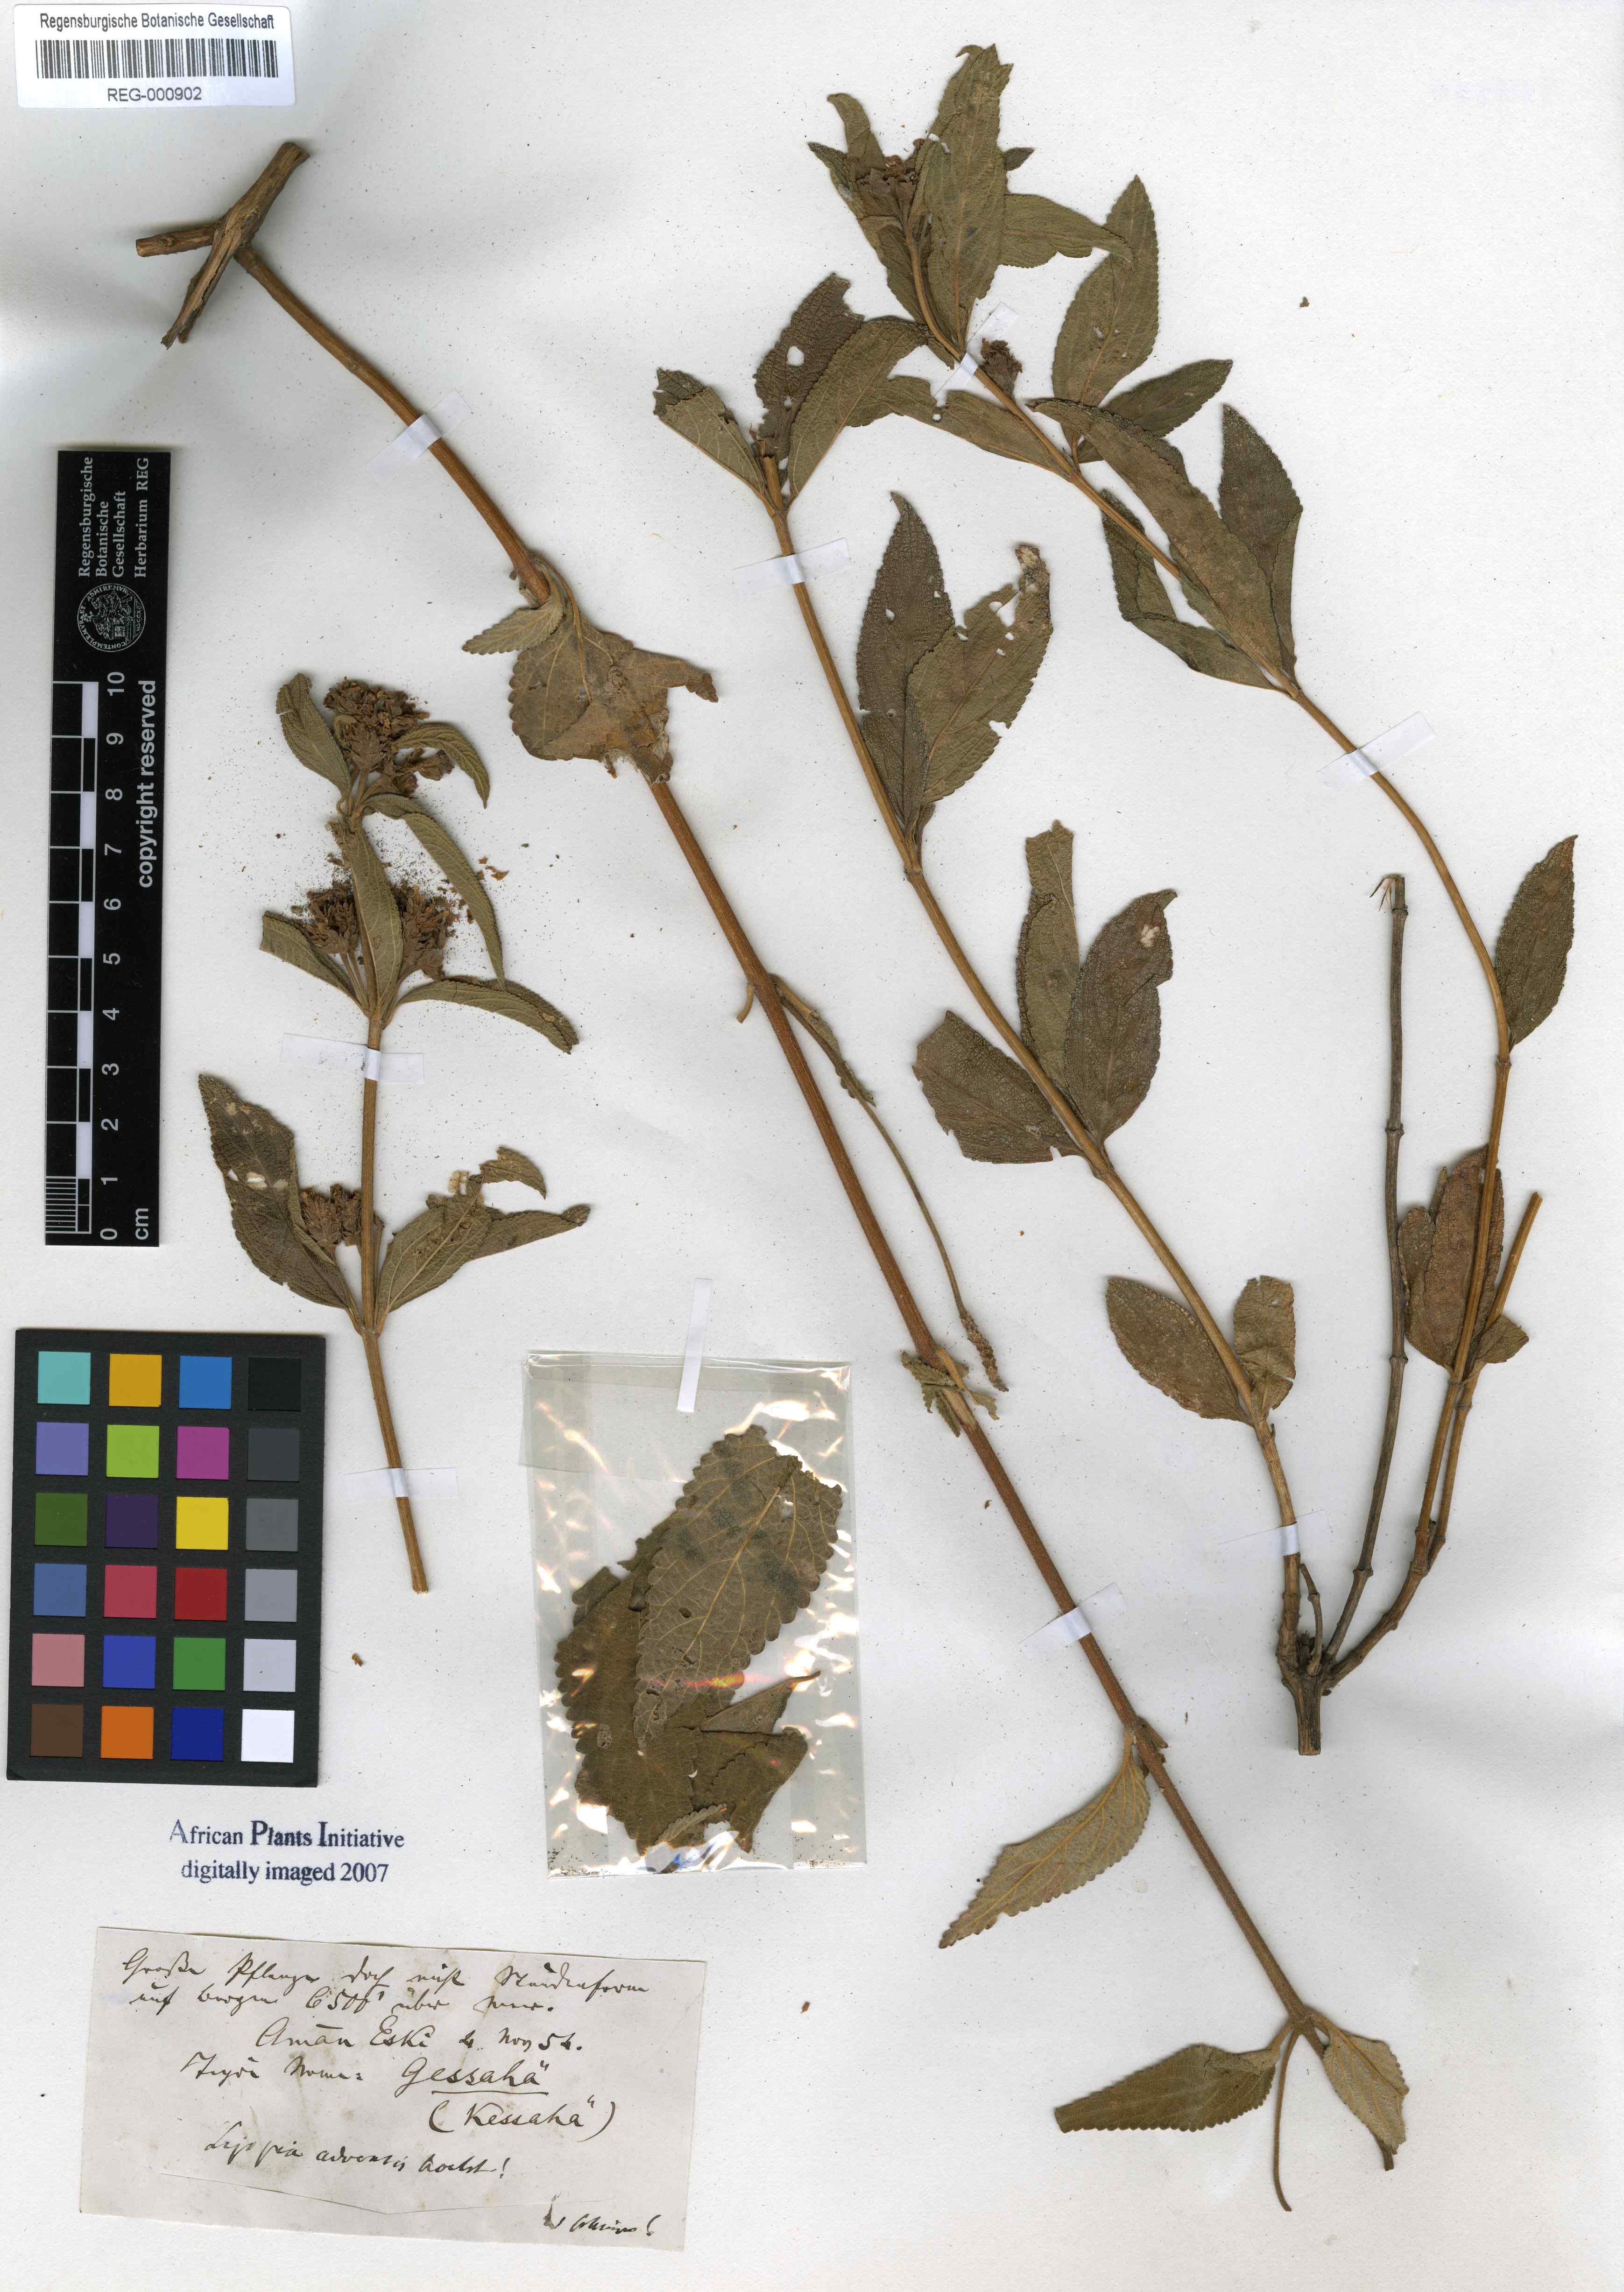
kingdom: Plantae
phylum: Tracheophyta
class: Magnoliopsida
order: Lamiales
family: Verbenaceae
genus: Lippia
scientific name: Lippia abyssinica
